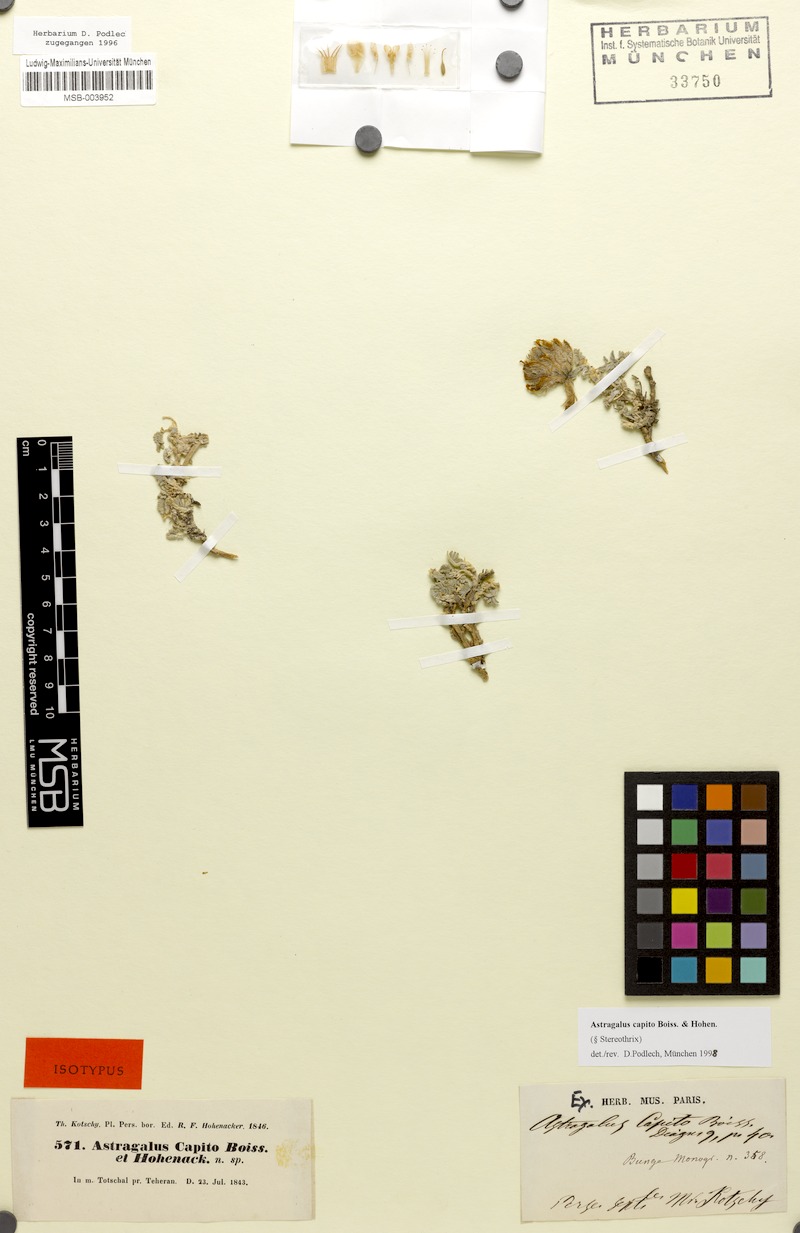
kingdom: Plantae
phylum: Tracheophyta
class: Magnoliopsida
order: Fabales
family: Fabaceae
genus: Astragalus
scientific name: Astragalus capito
